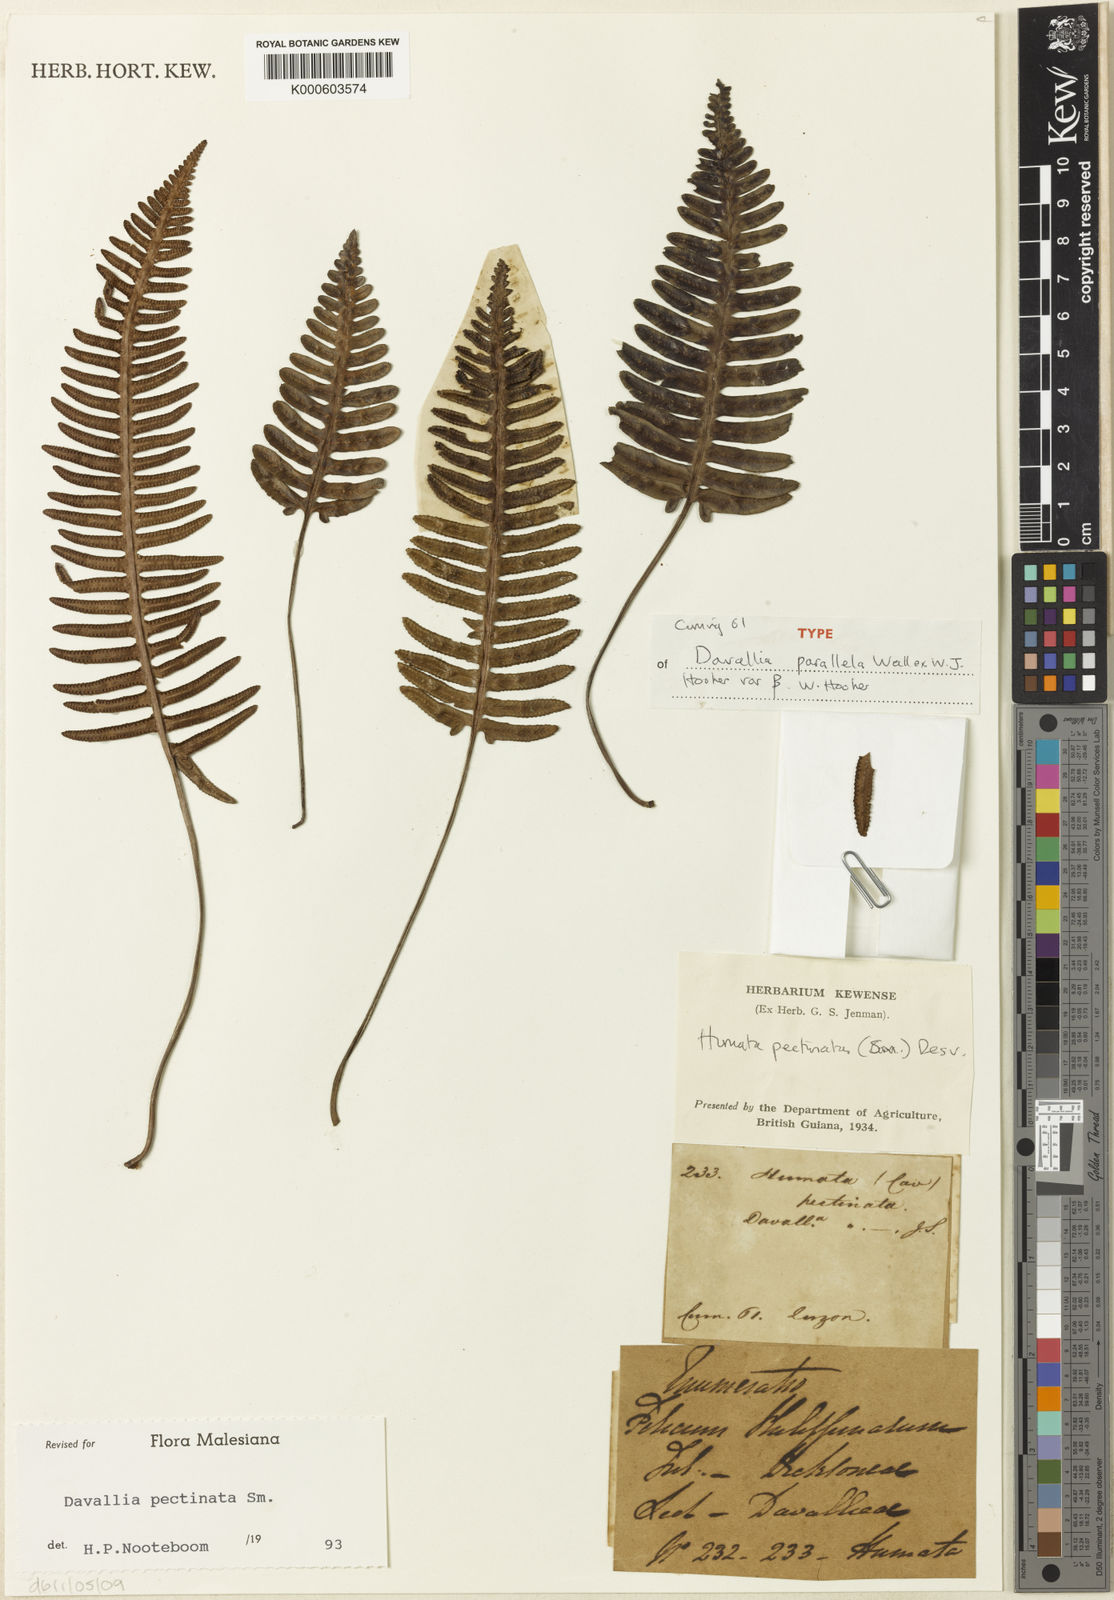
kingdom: Plantae
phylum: Tracheophyta
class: Polypodiopsida
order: Polypodiales
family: Davalliaceae
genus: Davallia
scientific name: Davallia pectinata
